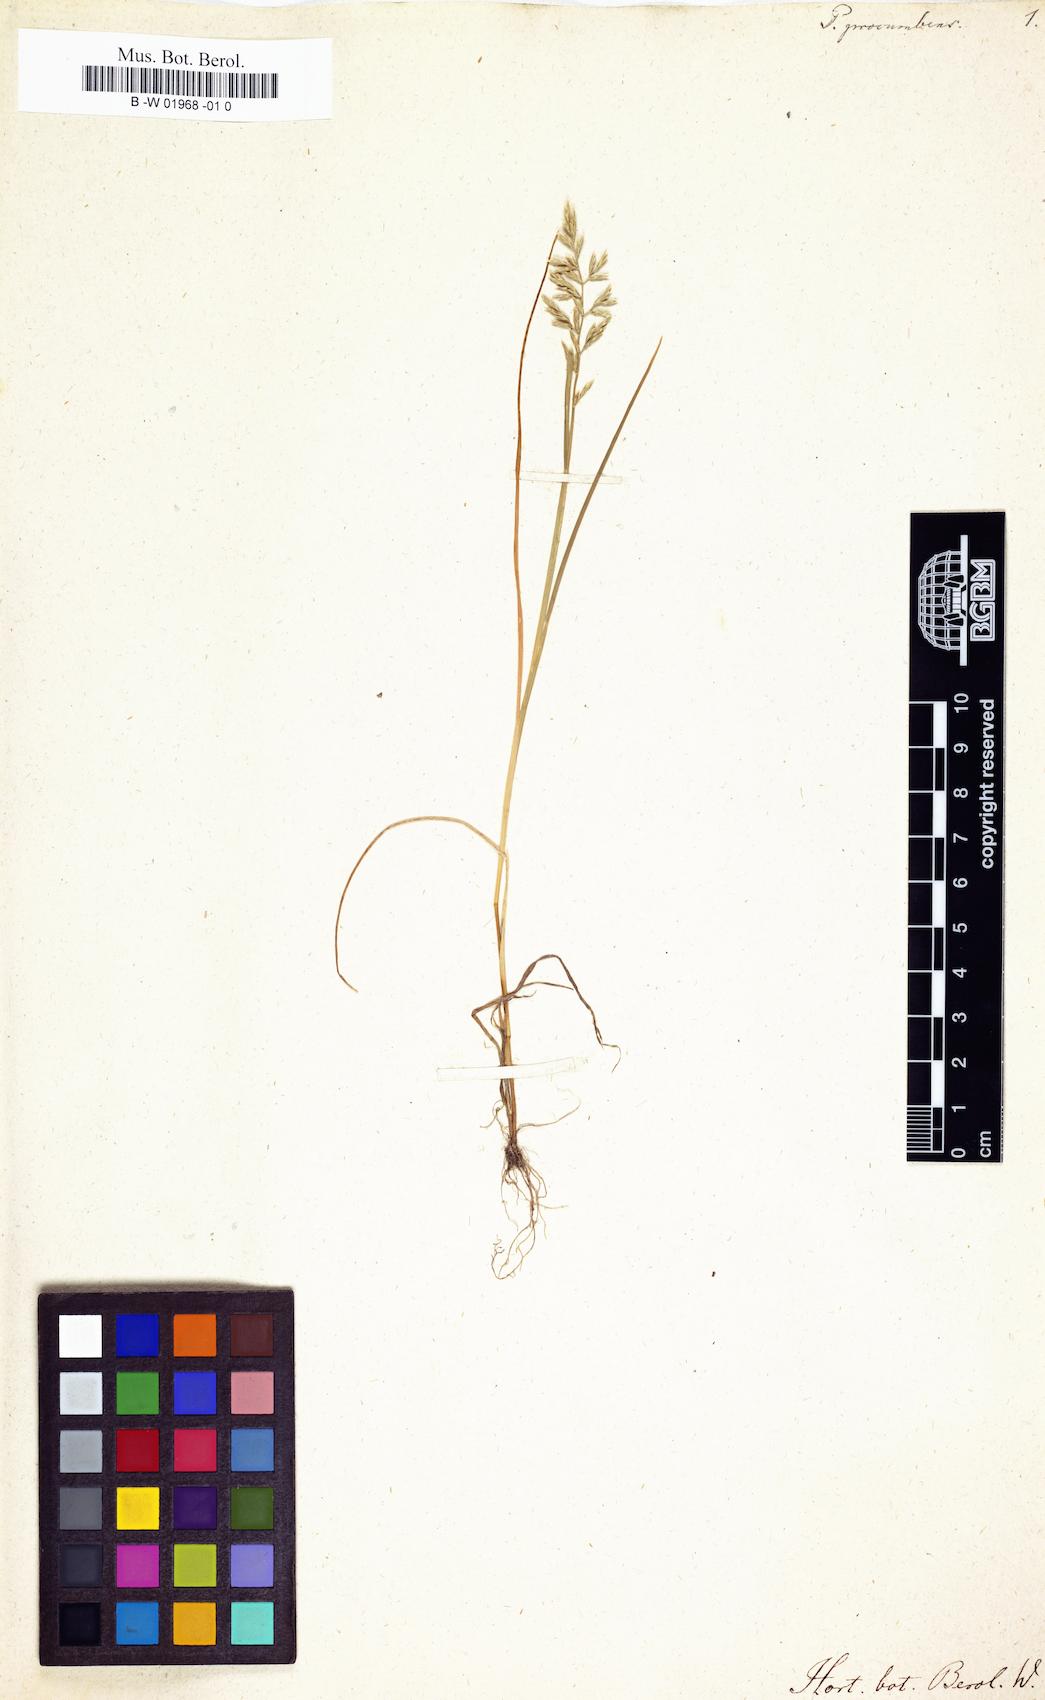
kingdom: Plantae
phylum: Tracheophyta
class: Liliopsida
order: Poales
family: Poaceae
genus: Puccinellia
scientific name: Puccinellia rupestris
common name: Stiff saltmarsh-grass
